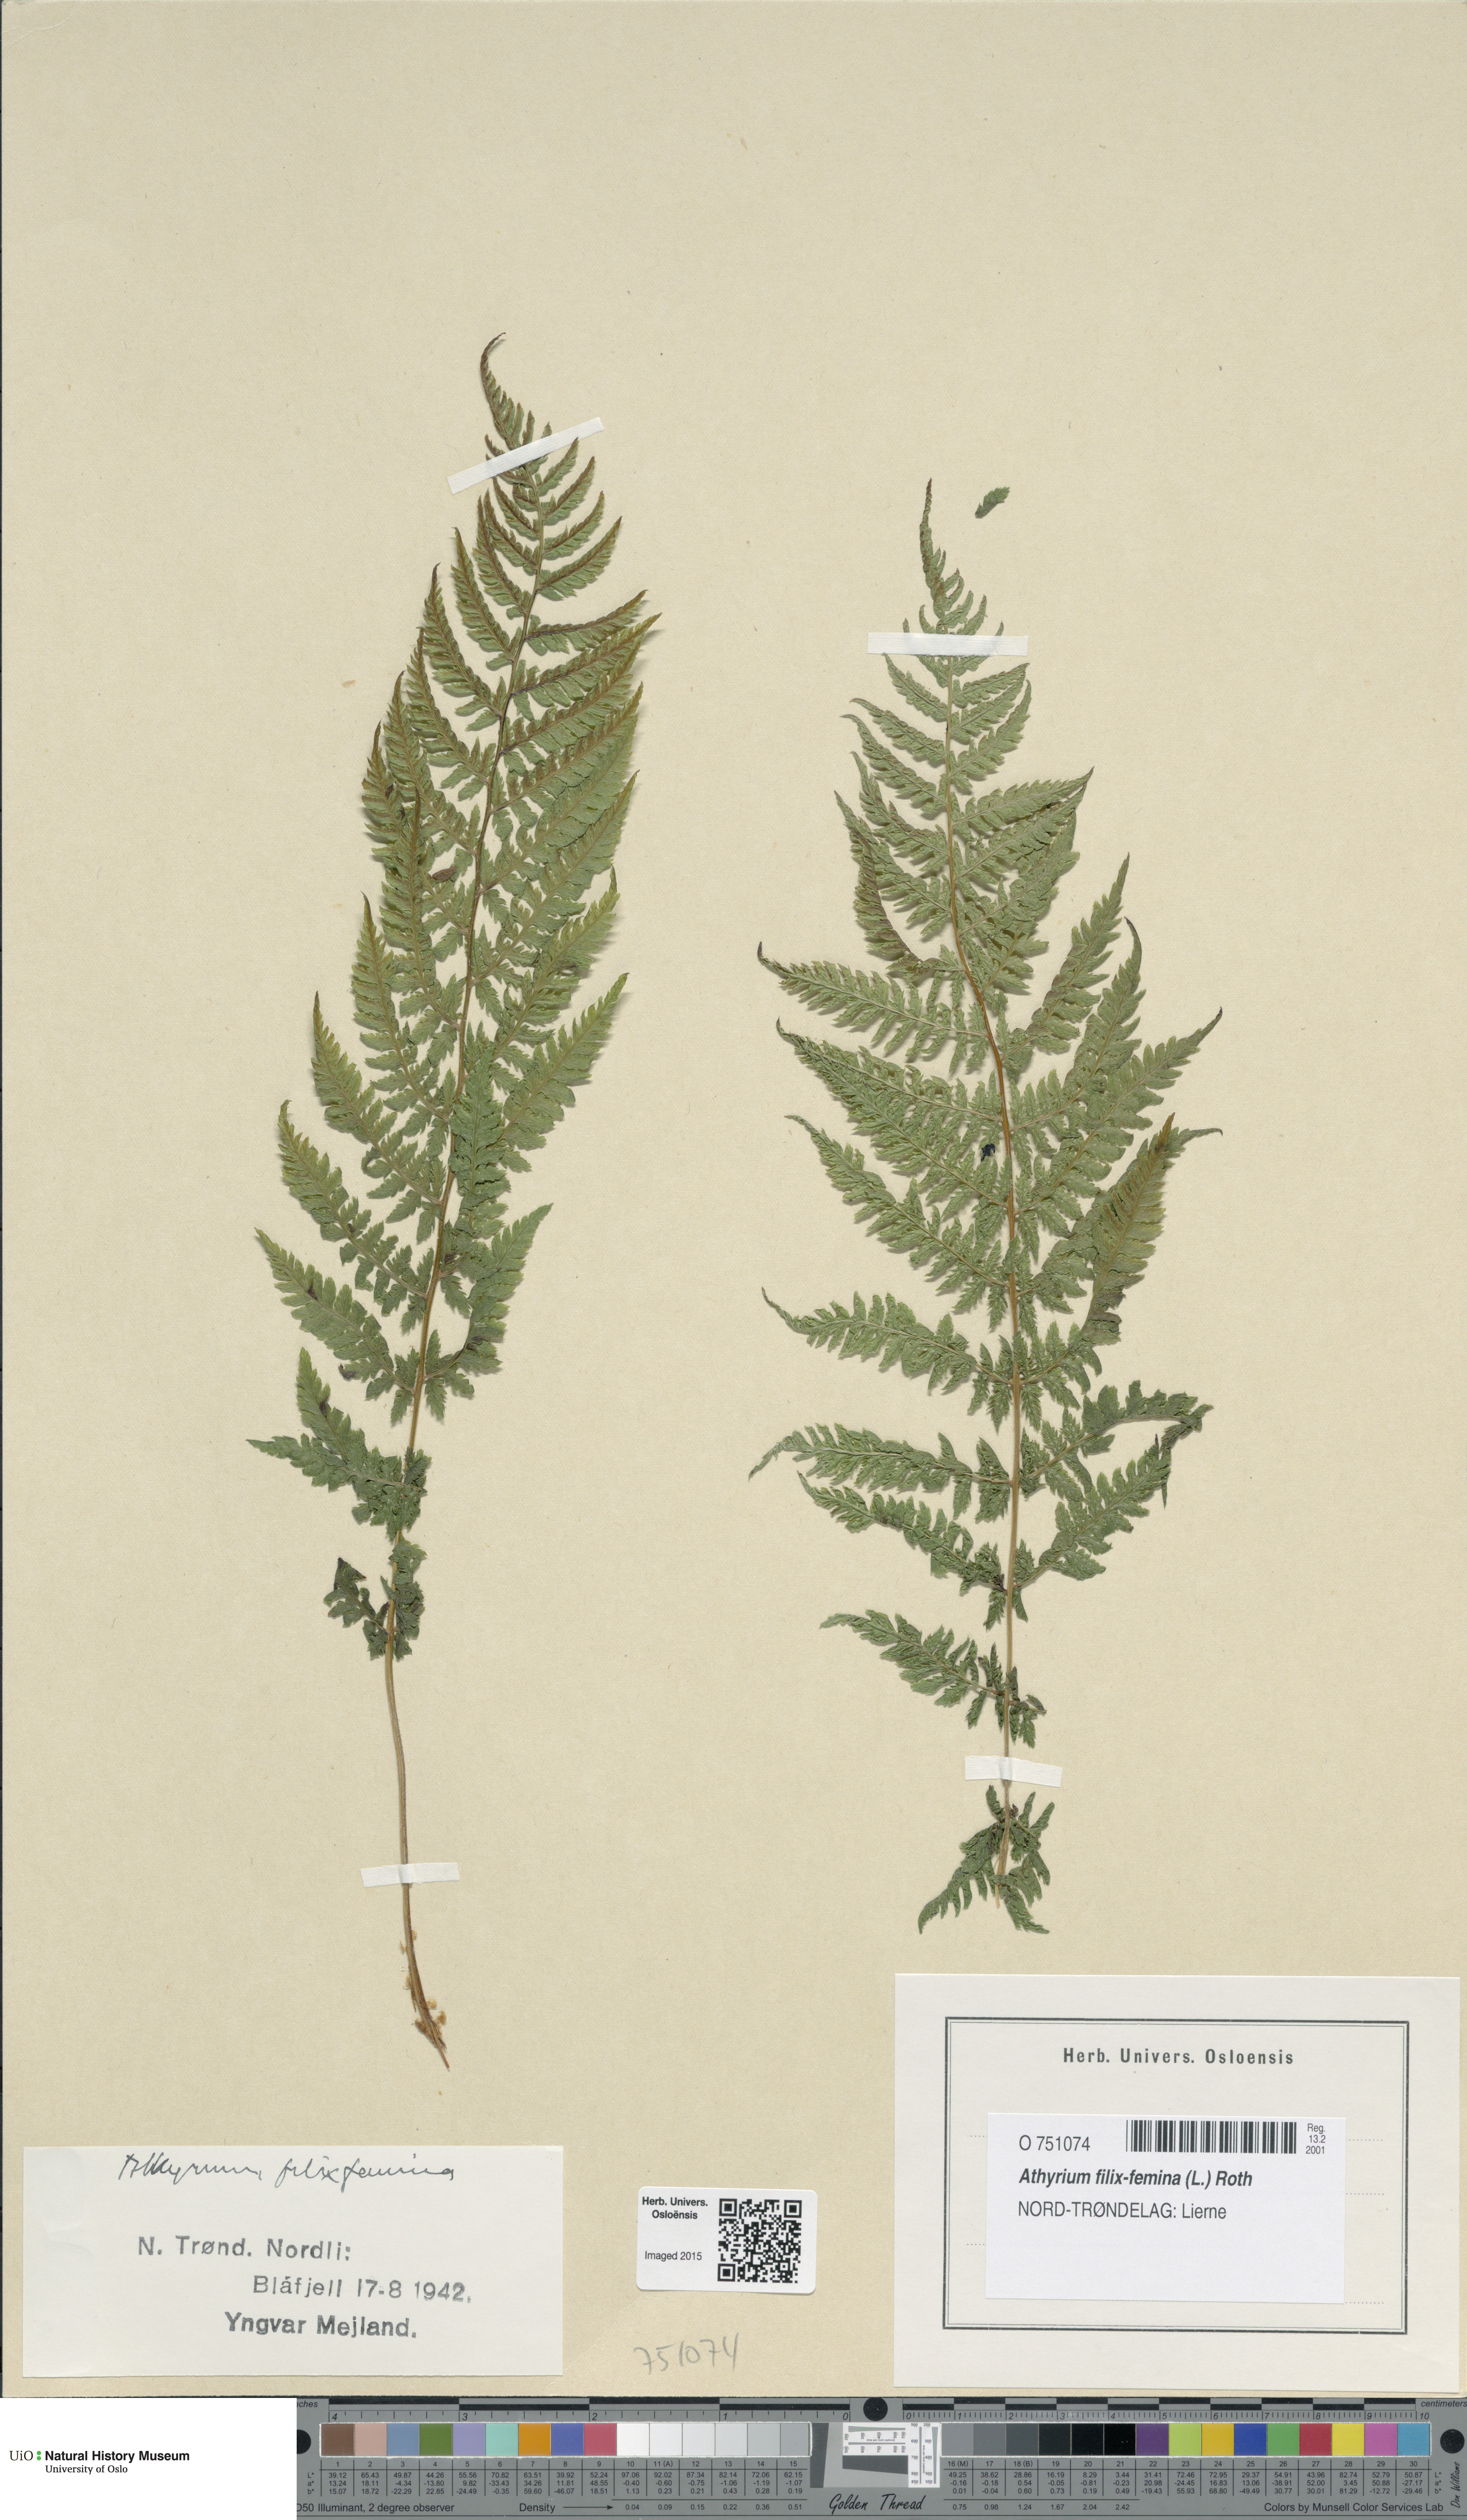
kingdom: Plantae
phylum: Tracheophyta
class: Polypodiopsida
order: Polypodiales
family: Athyriaceae
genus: Athyrium
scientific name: Athyrium filix-femina
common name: Lady fern
